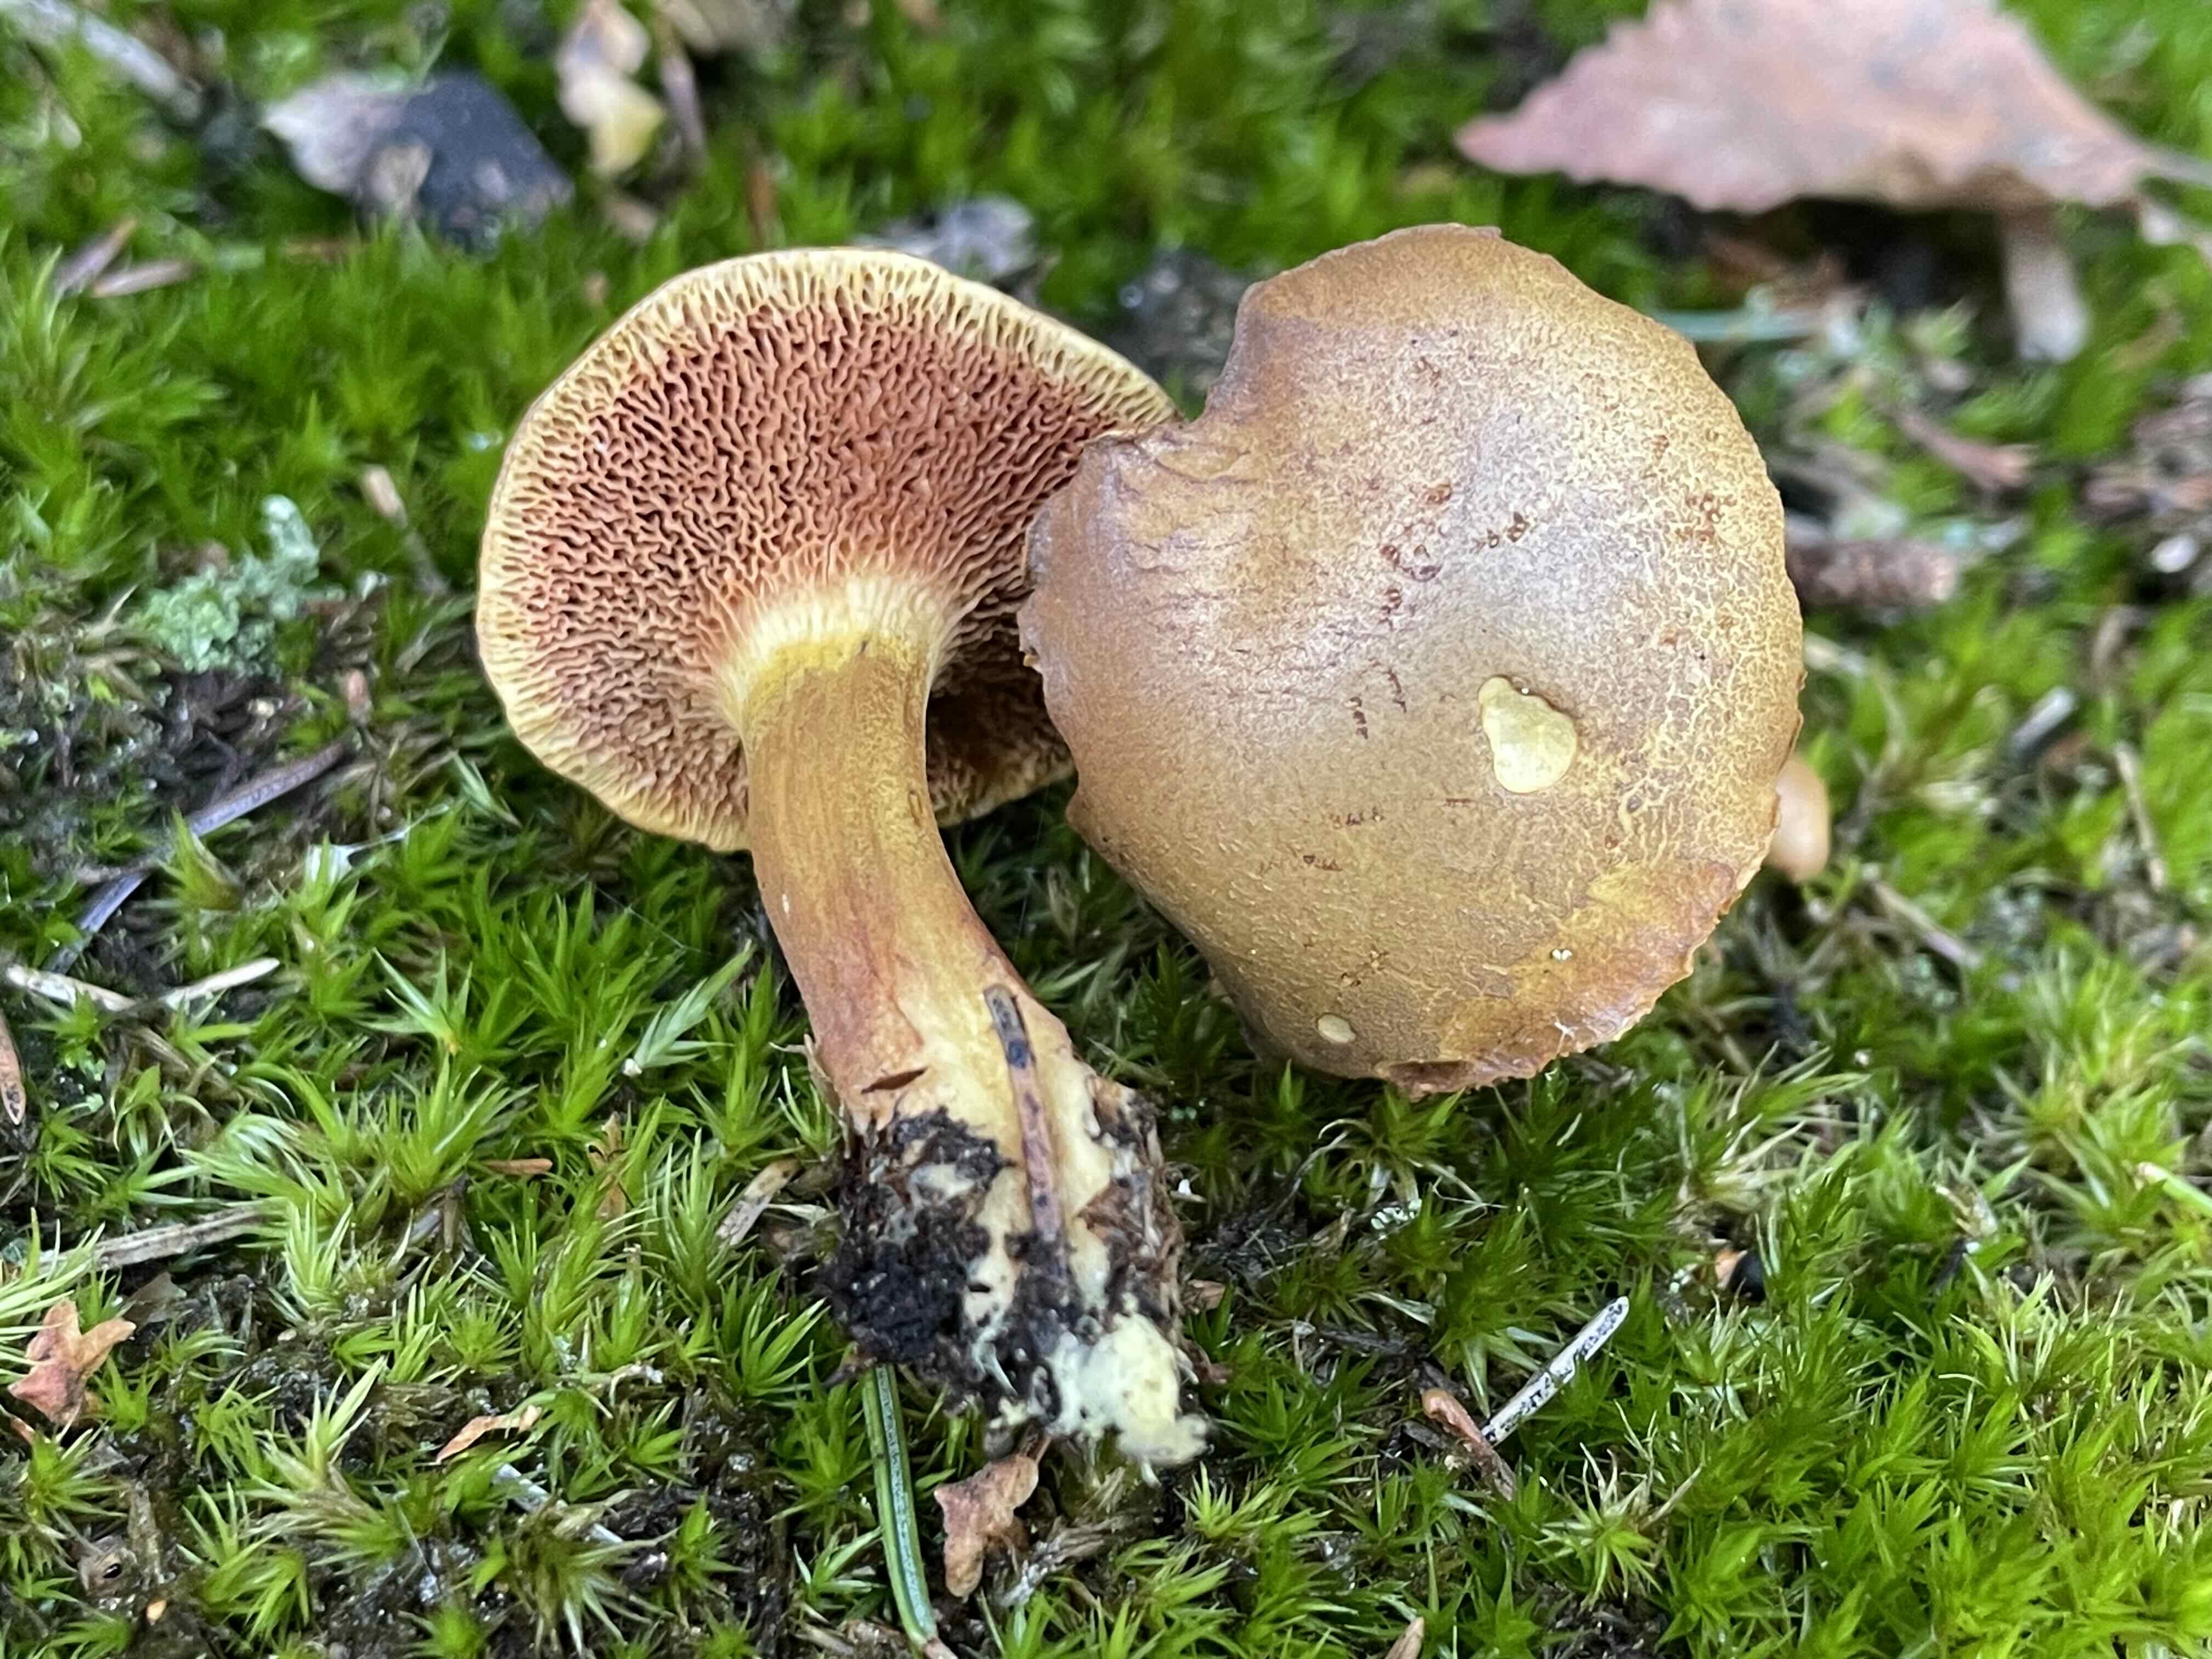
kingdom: Fungi
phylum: Basidiomycota
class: Agaricomycetes
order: Boletales
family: Boletaceae
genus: Chalciporus
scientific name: Chalciporus piperatus
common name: peberrørhat
